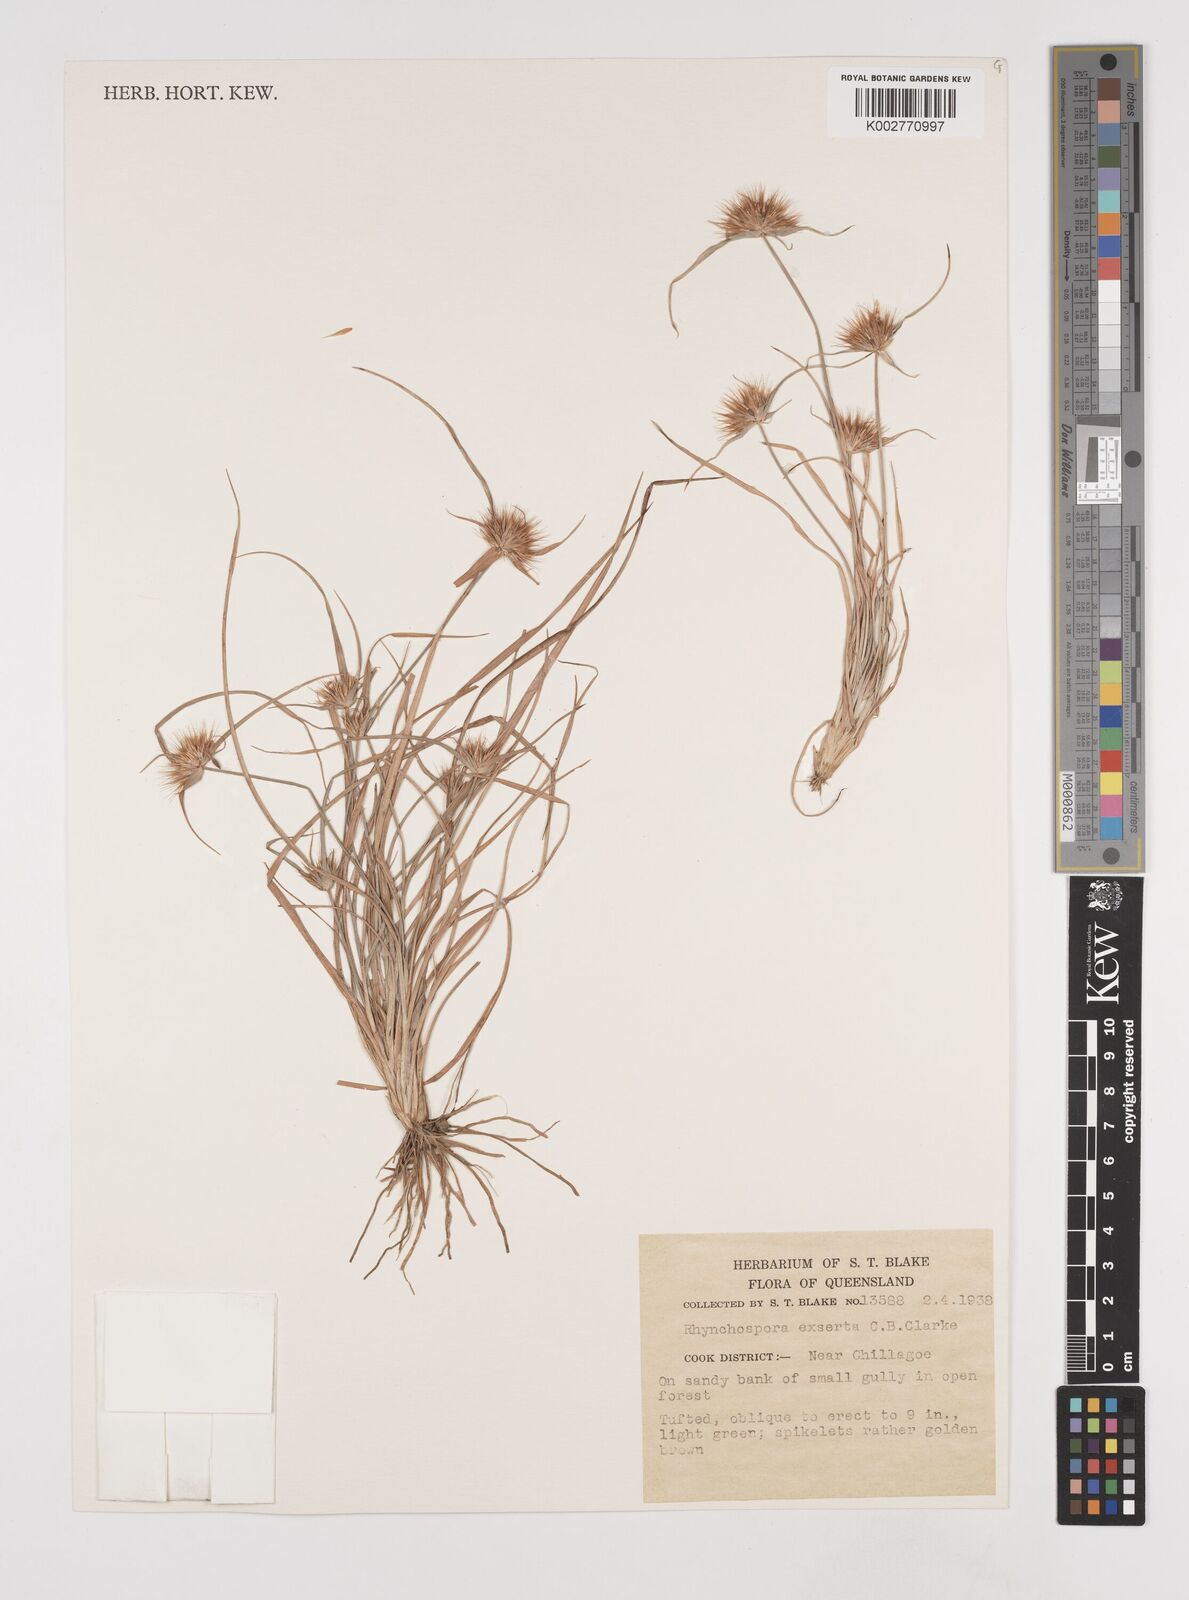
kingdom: Plantae
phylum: Tracheophyta
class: Liliopsida
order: Poales
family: Cyperaceae
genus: Rhynchospora
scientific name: Rhynchospora exserta
